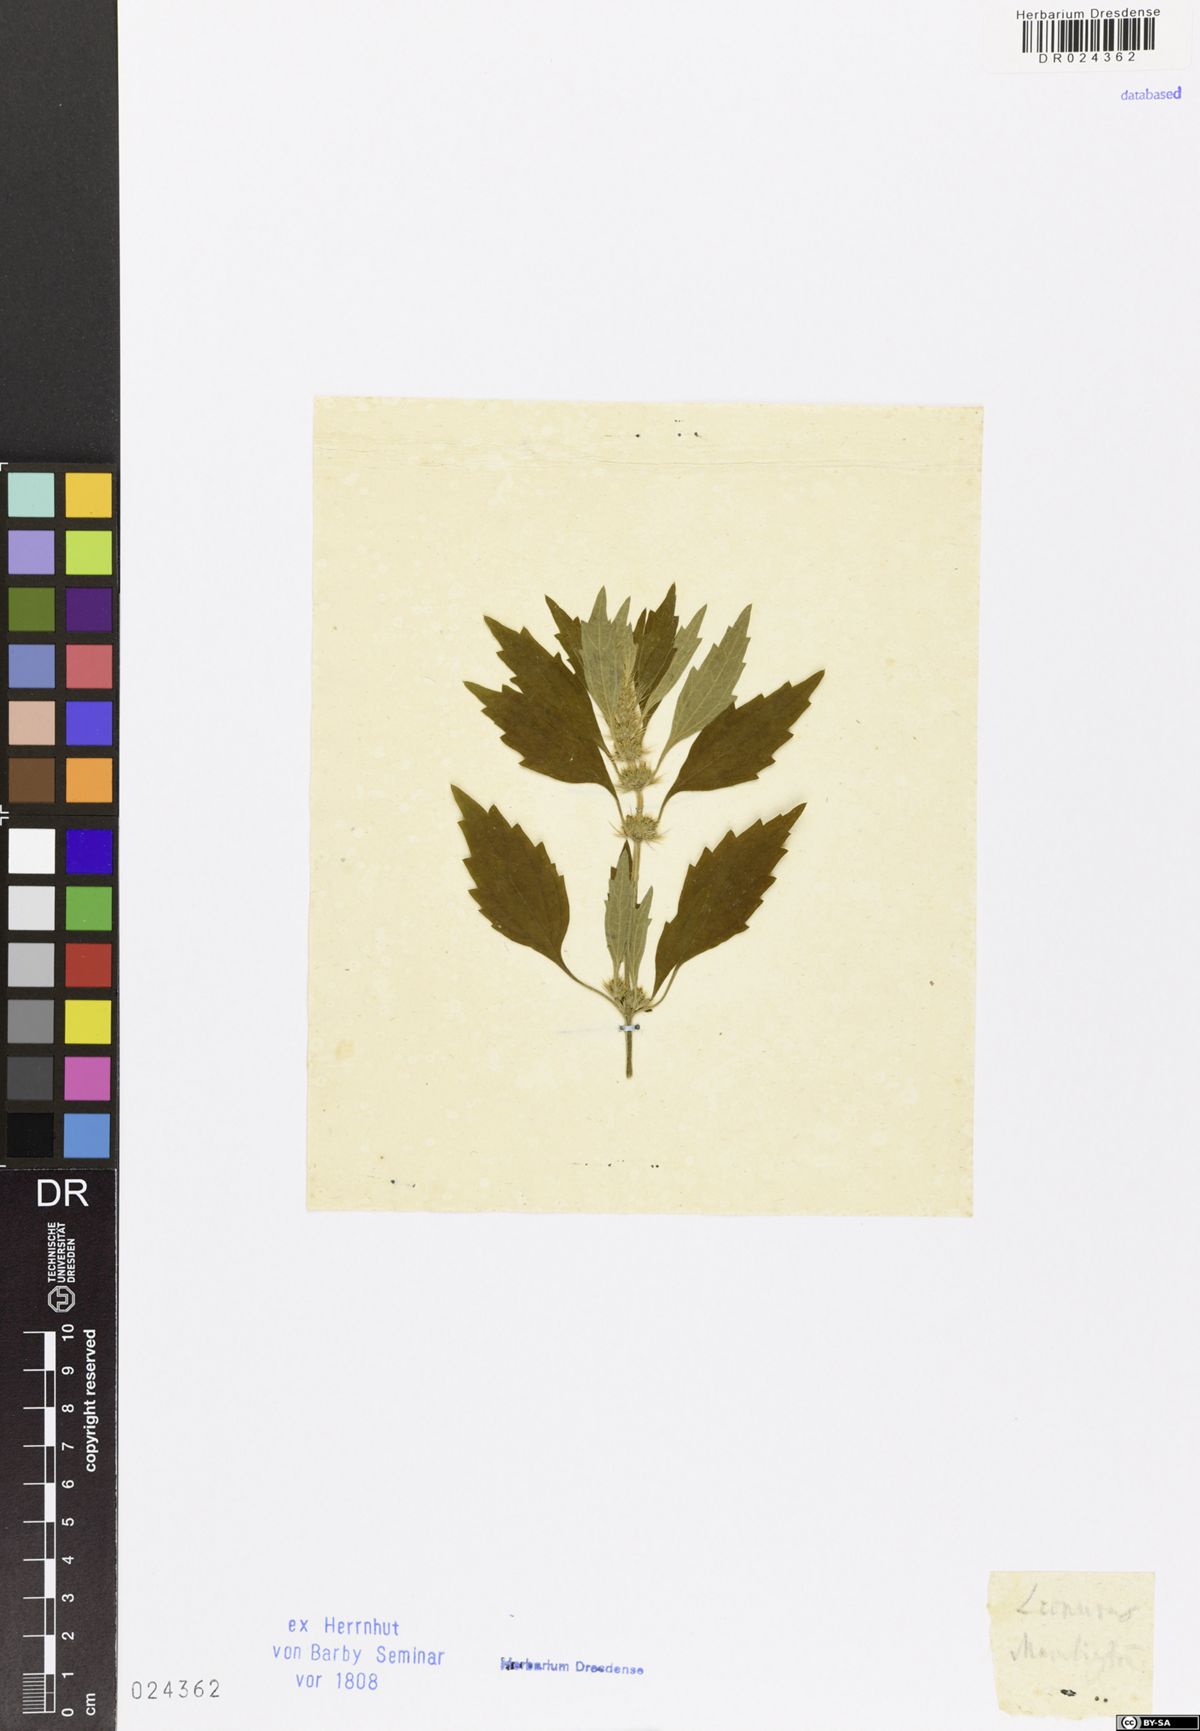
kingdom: Plantae
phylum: Tracheophyta
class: Magnoliopsida
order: Lamiales
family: Lamiaceae
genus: Chaiturus
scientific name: Chaiturus marrubiastrum
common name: Lion's tail
